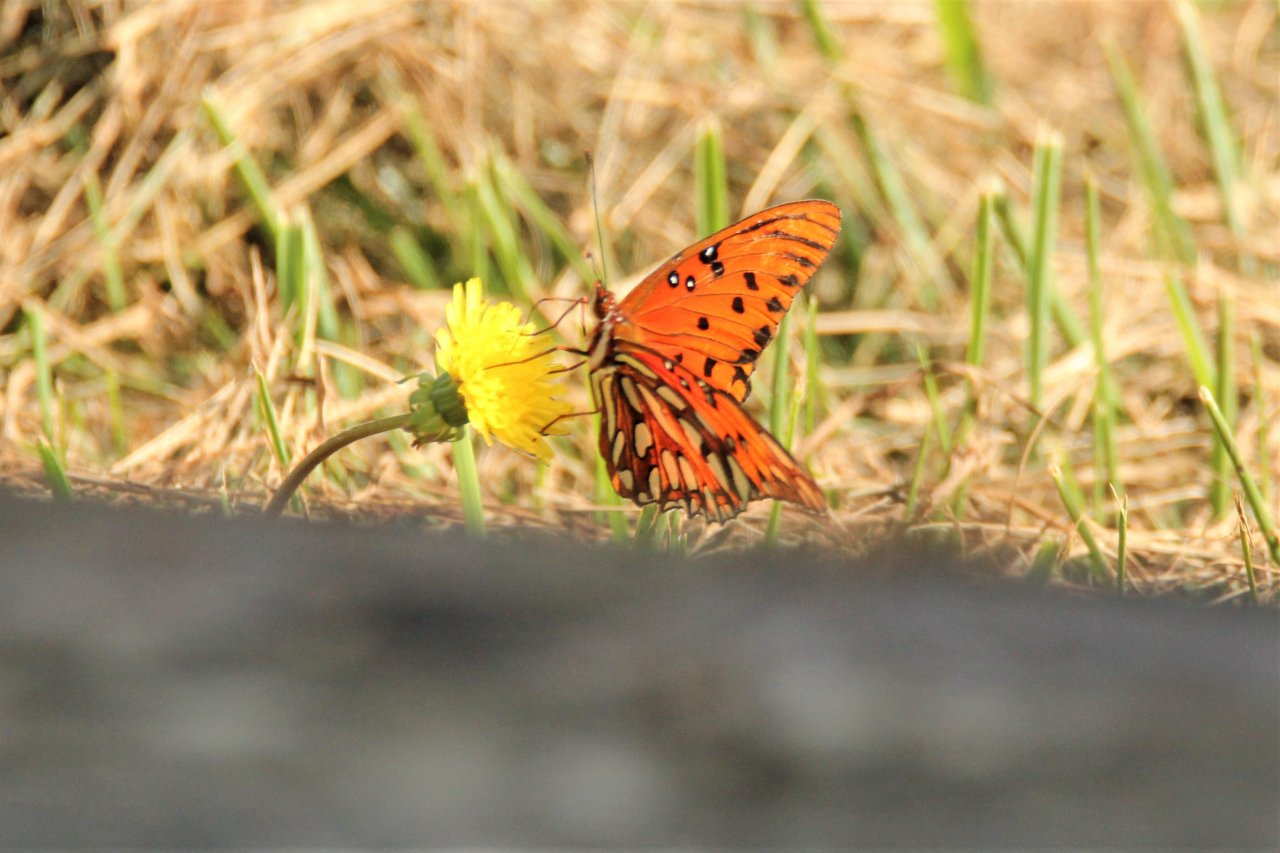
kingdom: Animalia
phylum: Arthropoda
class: Insecta
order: Lepidoptera
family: Nymphalidae
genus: Dione
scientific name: Dione vanillae
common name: Gulf Fritillary
